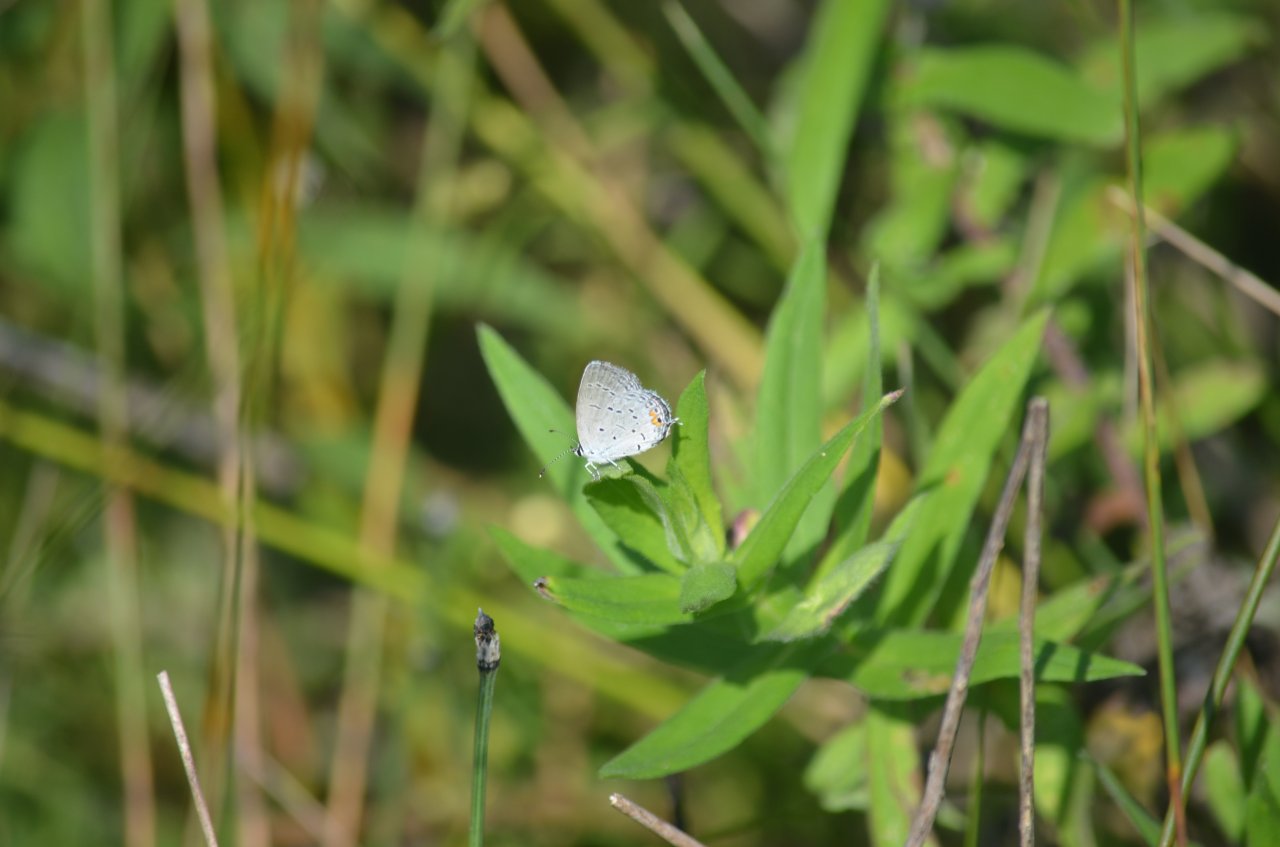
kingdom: Animalia
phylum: Arthropoda
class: Insecta
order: Lepidoptera
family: Lycaenidae
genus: Elkalyce
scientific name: Elkalyce comyntas
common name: Eastern Tailed-Blue
